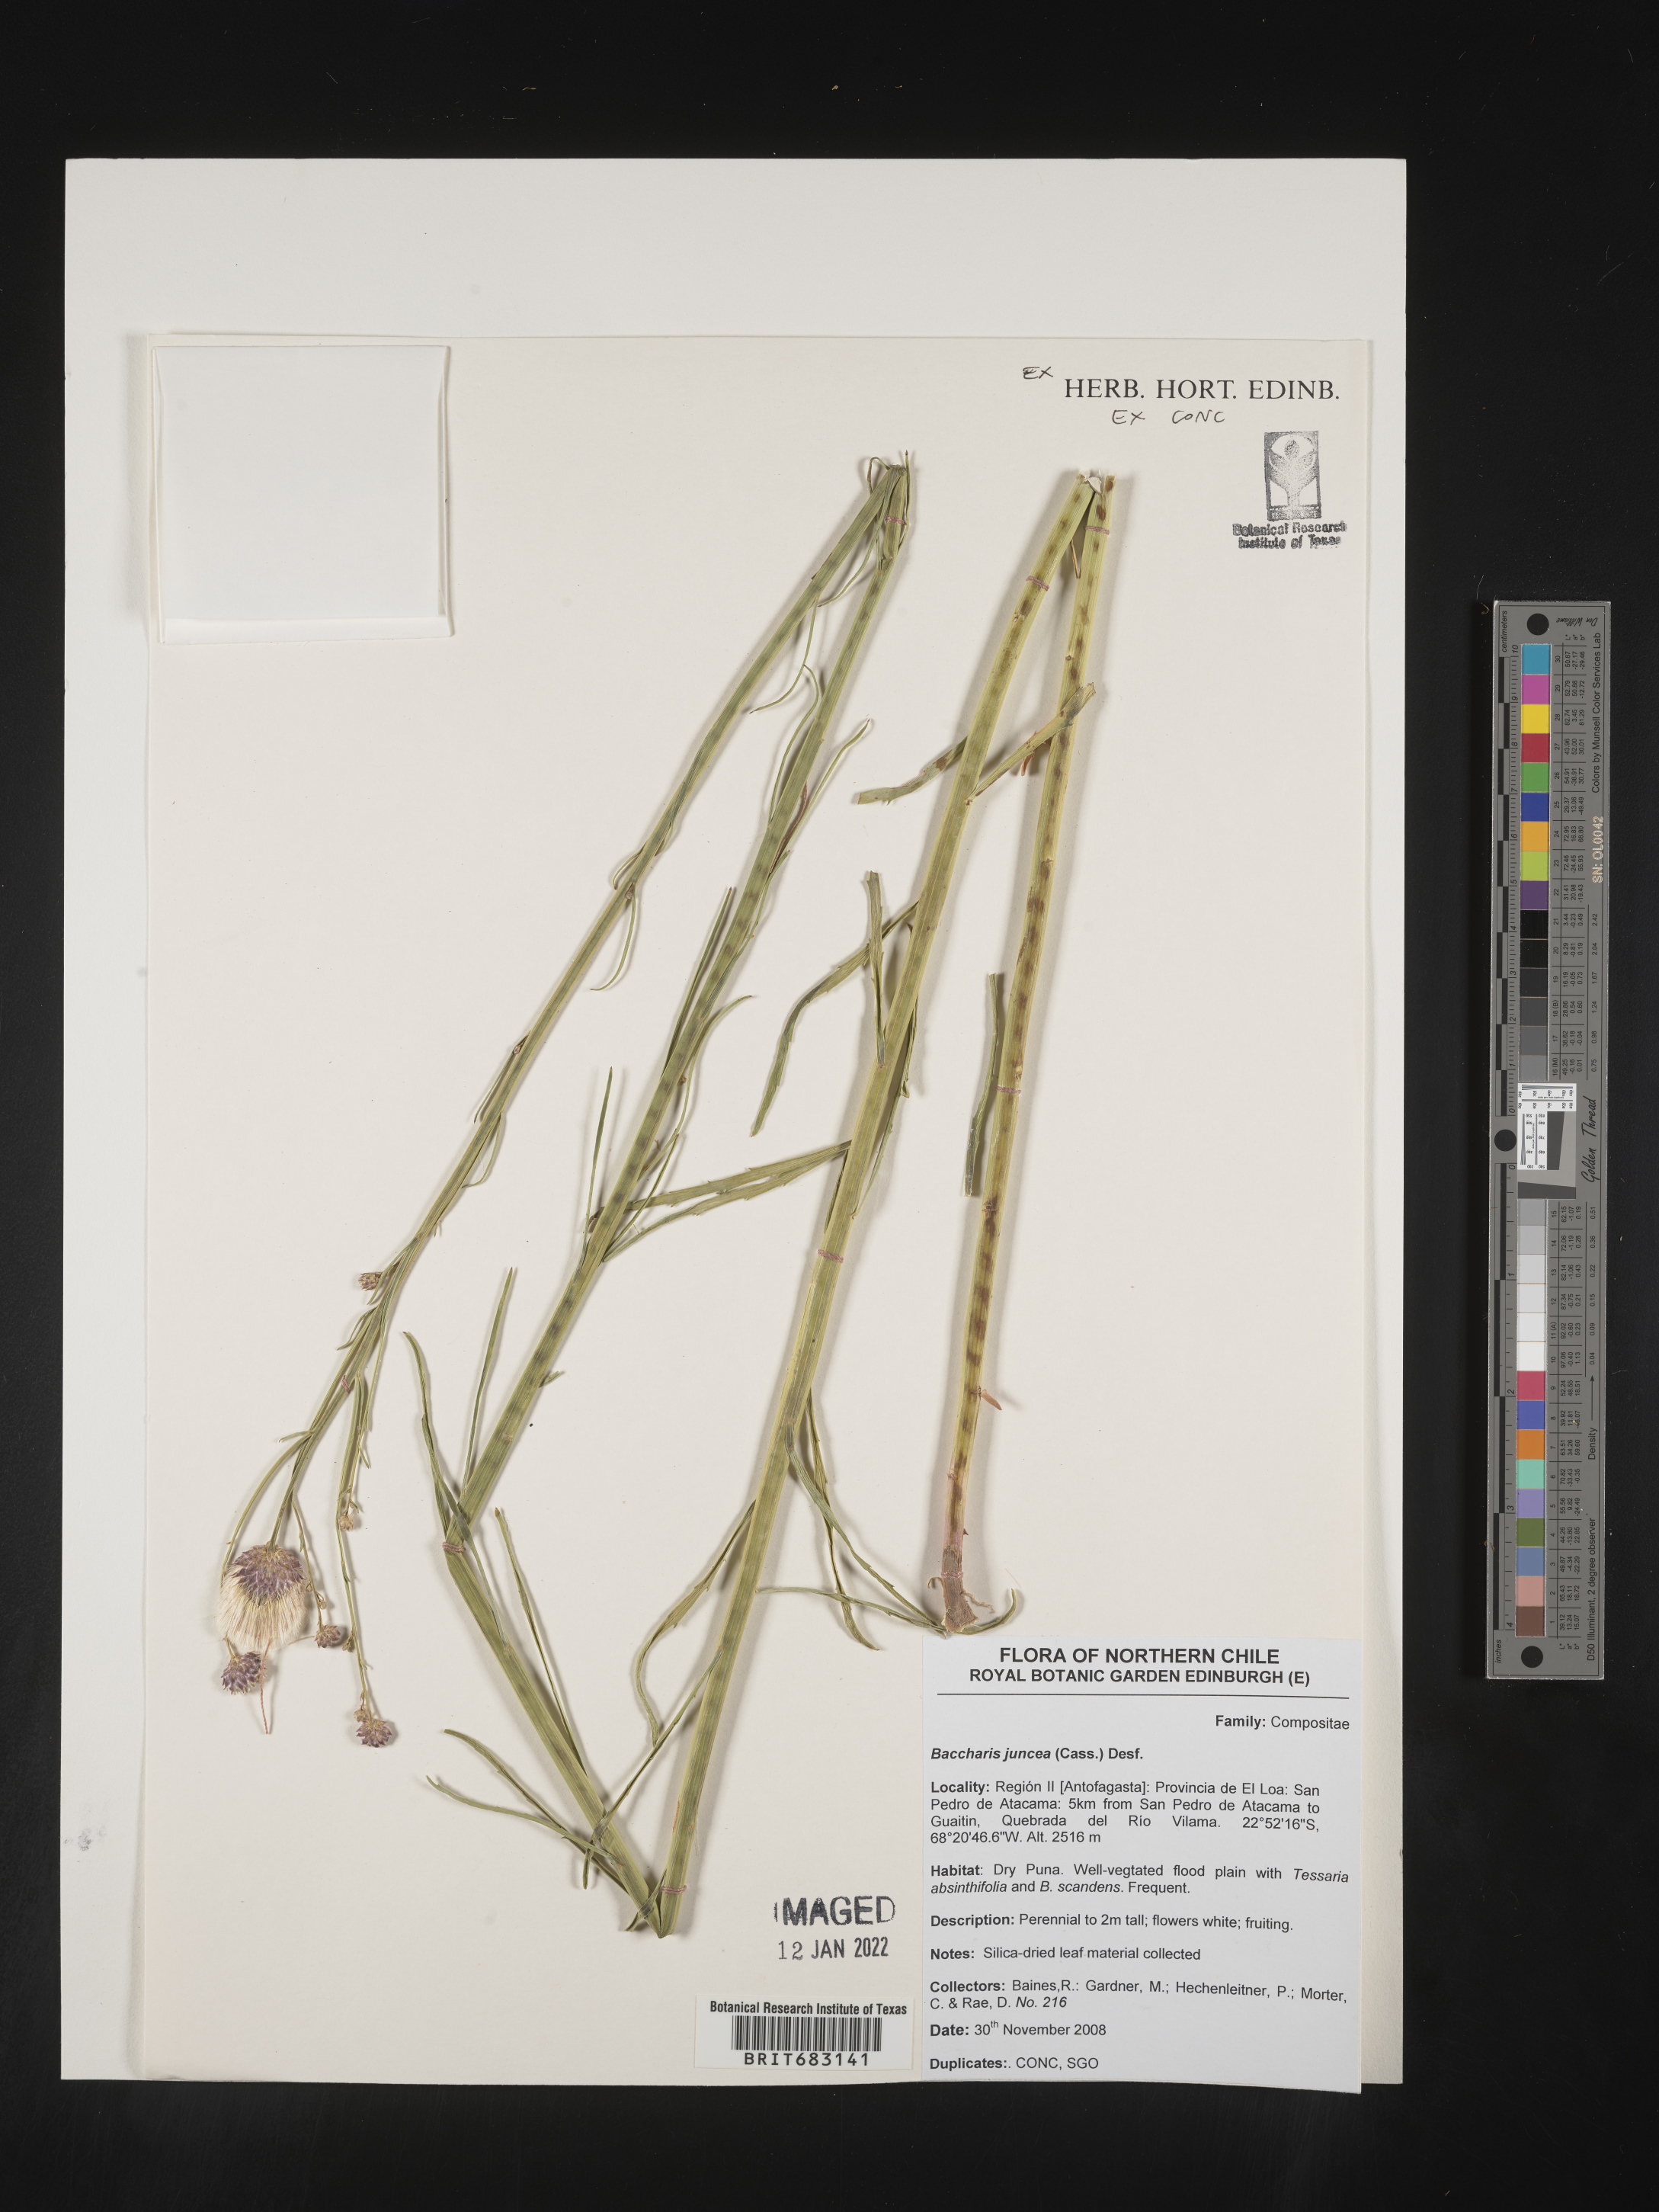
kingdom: Plantae
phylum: Tracheophyta
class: Magnoliopsida
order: Asterales
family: Asteraceae
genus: Baccharis
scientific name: Baccharis
